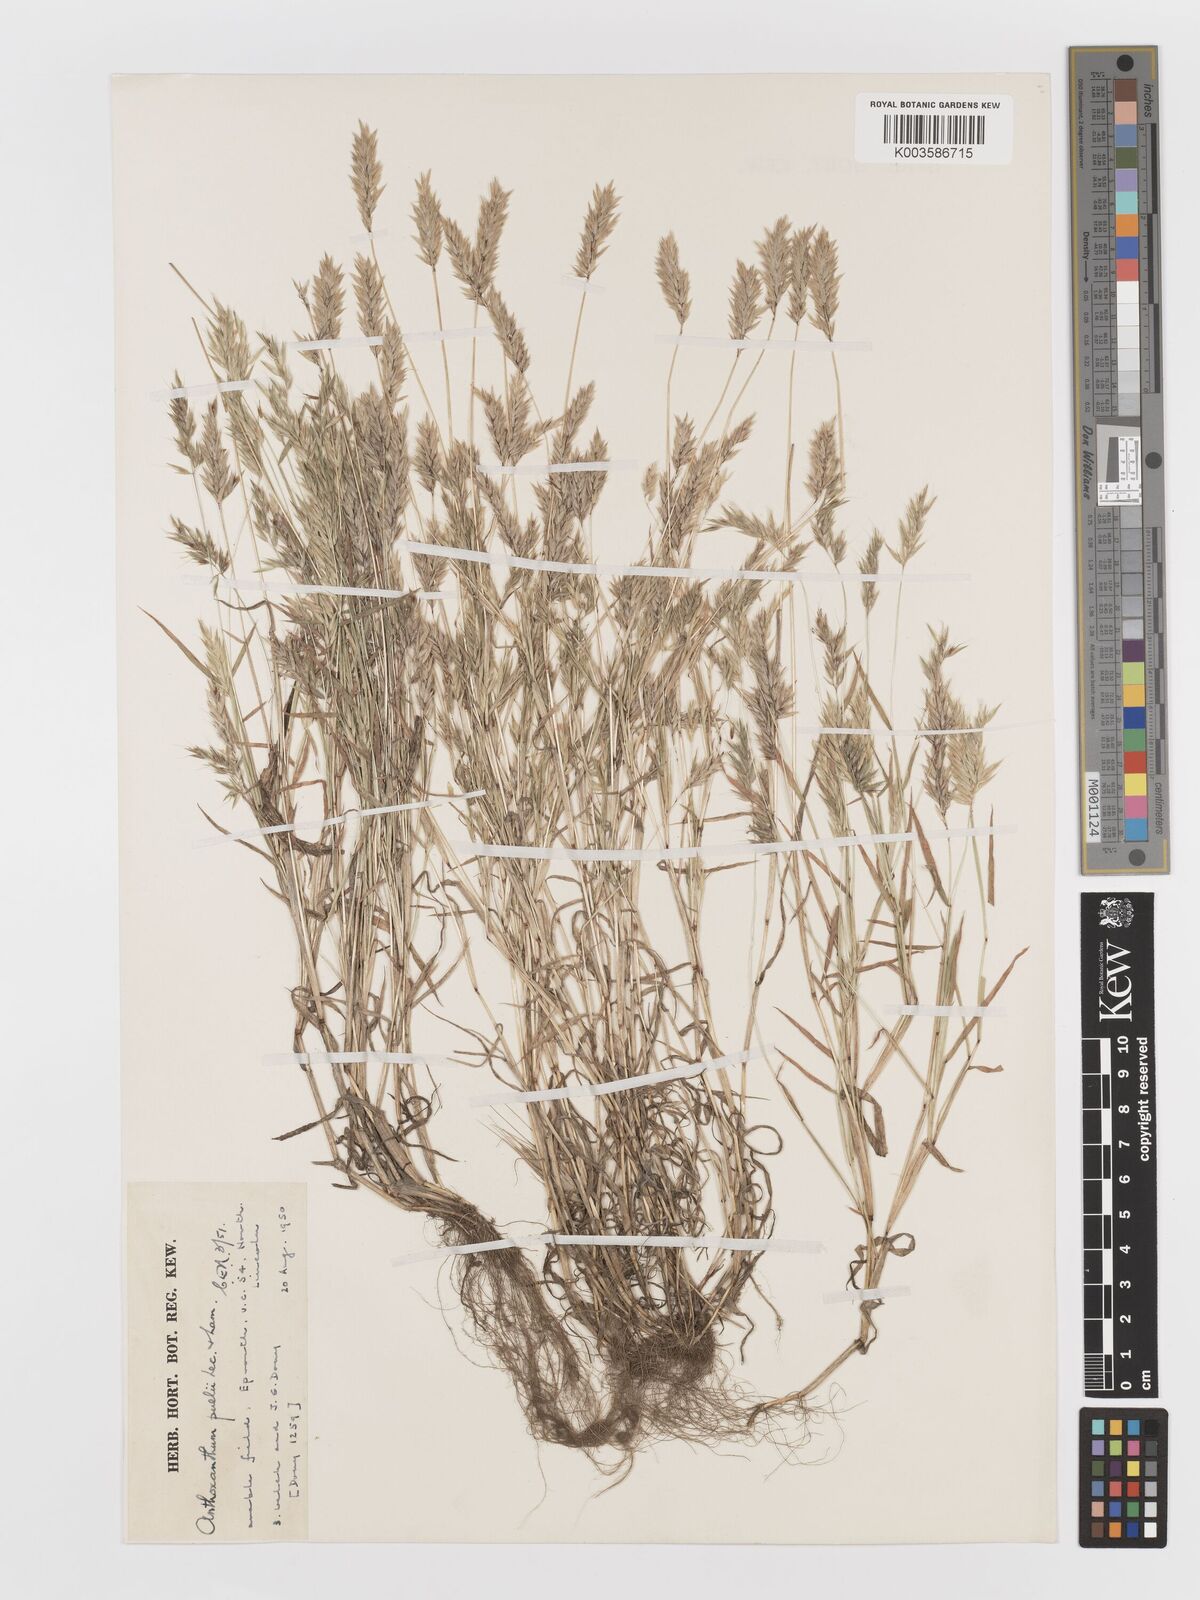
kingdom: Plantae
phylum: Tracheophyta
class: Liliopsida
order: Poales
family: Poaceae
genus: Anthoxanthum
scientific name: Anthoxanthum aristatum
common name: Annual vernal-grass
